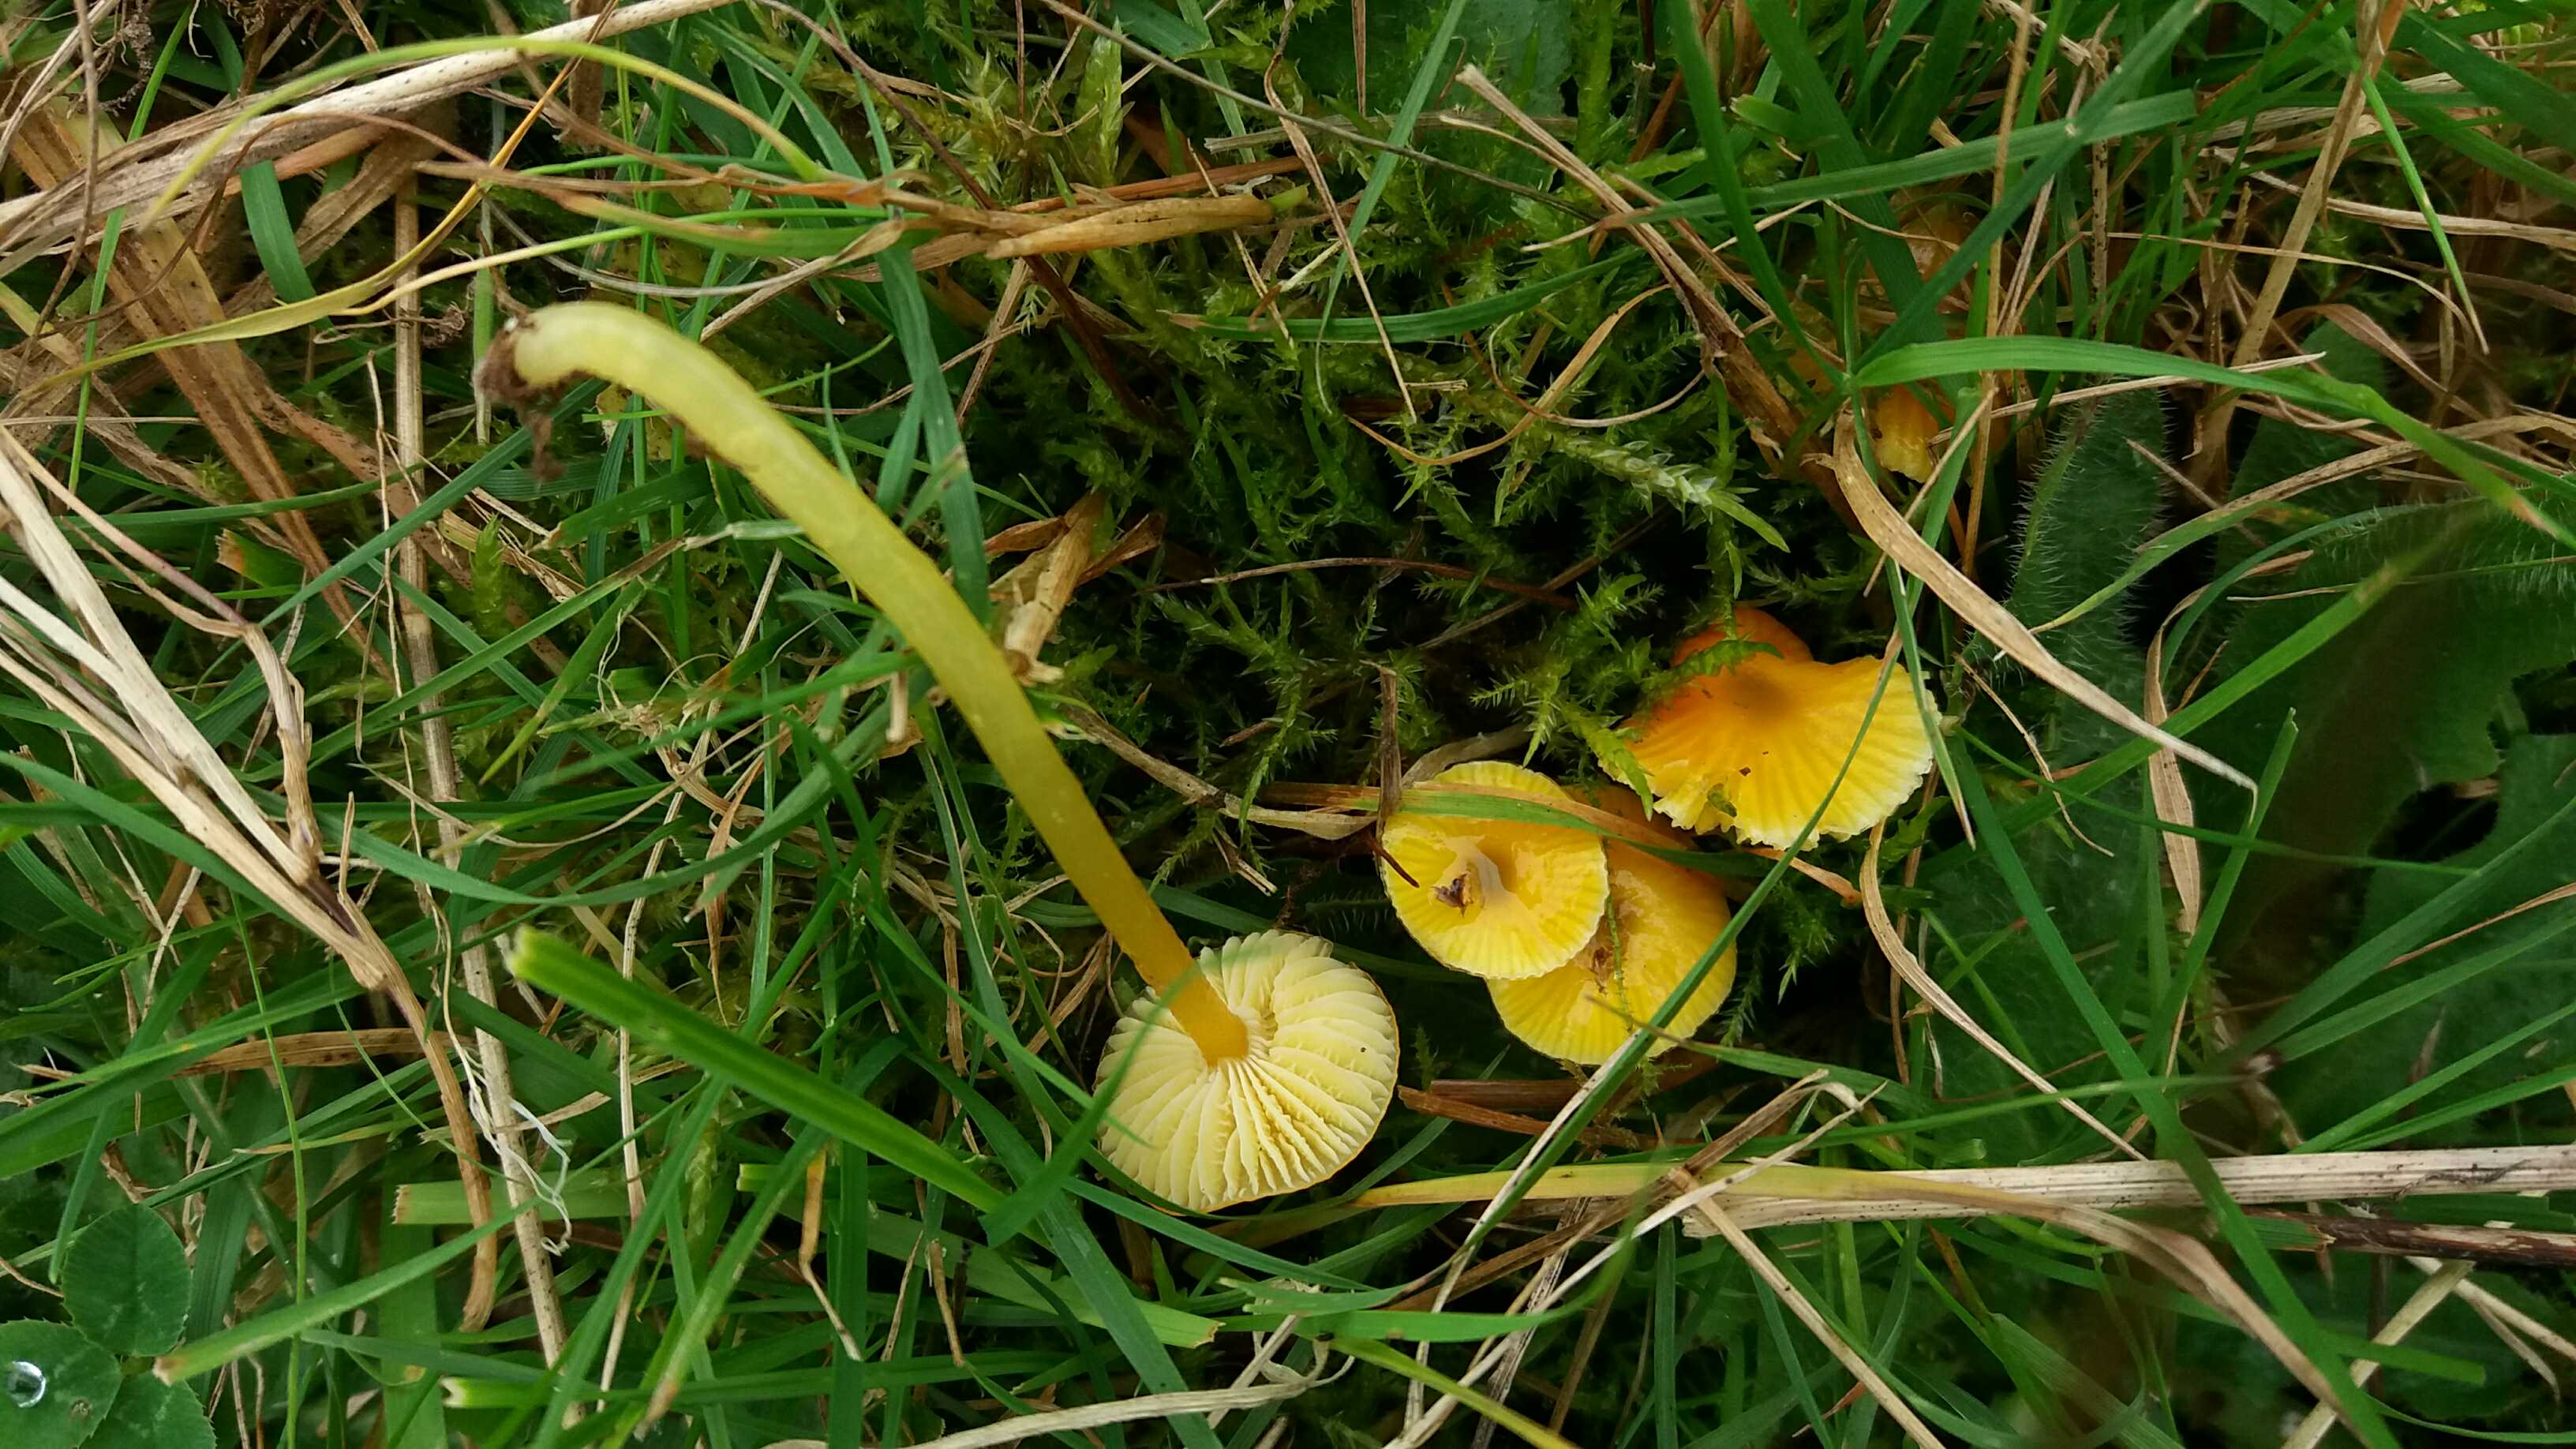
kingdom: Fungi
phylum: Basidiomycota
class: Agaricomycetes
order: Agaricales
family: Hygrophoraceae
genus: Hygrocybe
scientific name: Hygrocybe glutinipes
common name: slimstokket vokshat
